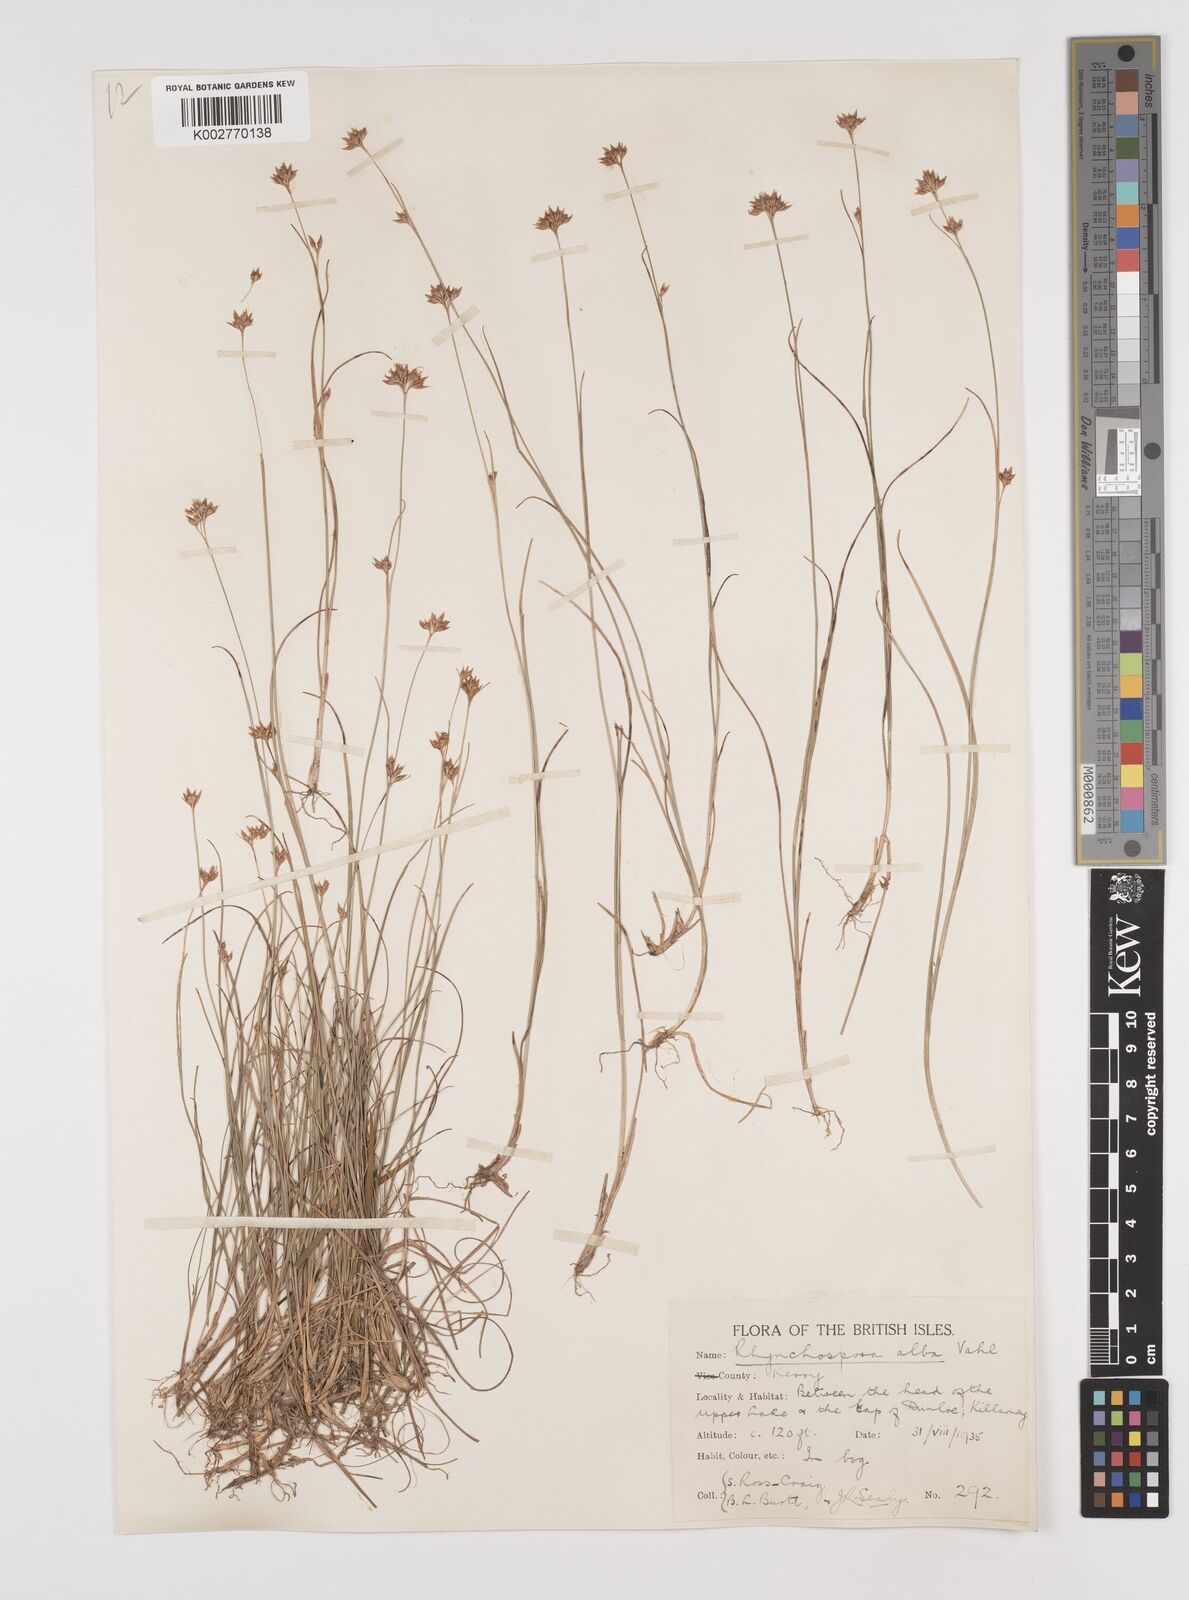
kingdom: Plantae
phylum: Tracheophyta
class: Liliopsida
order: Poales
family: Cyperaceae
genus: Rhynchospora
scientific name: Rhynchospora alba
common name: White beak-sedge
